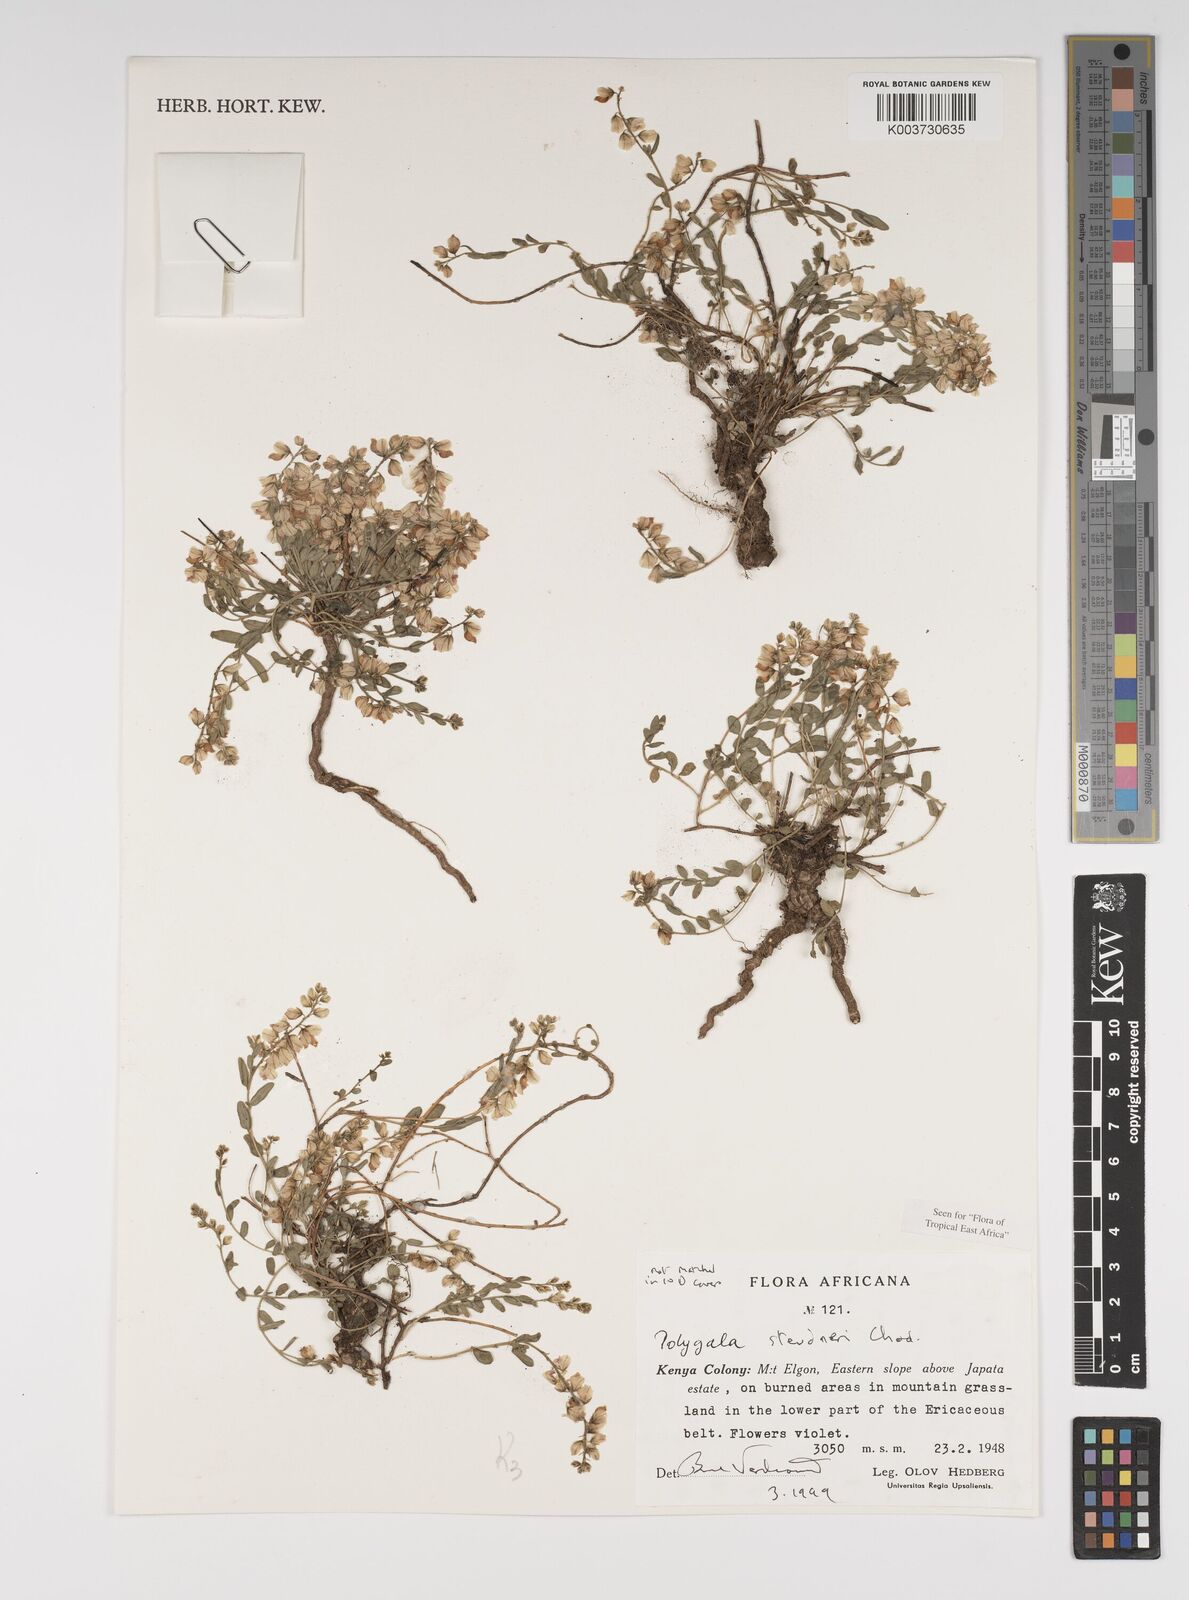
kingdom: Plantae
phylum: Tracheophyta
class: Magnoliopsida
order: Fabales
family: Polygalaceae
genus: Polygala
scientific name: Polygala steudneri
